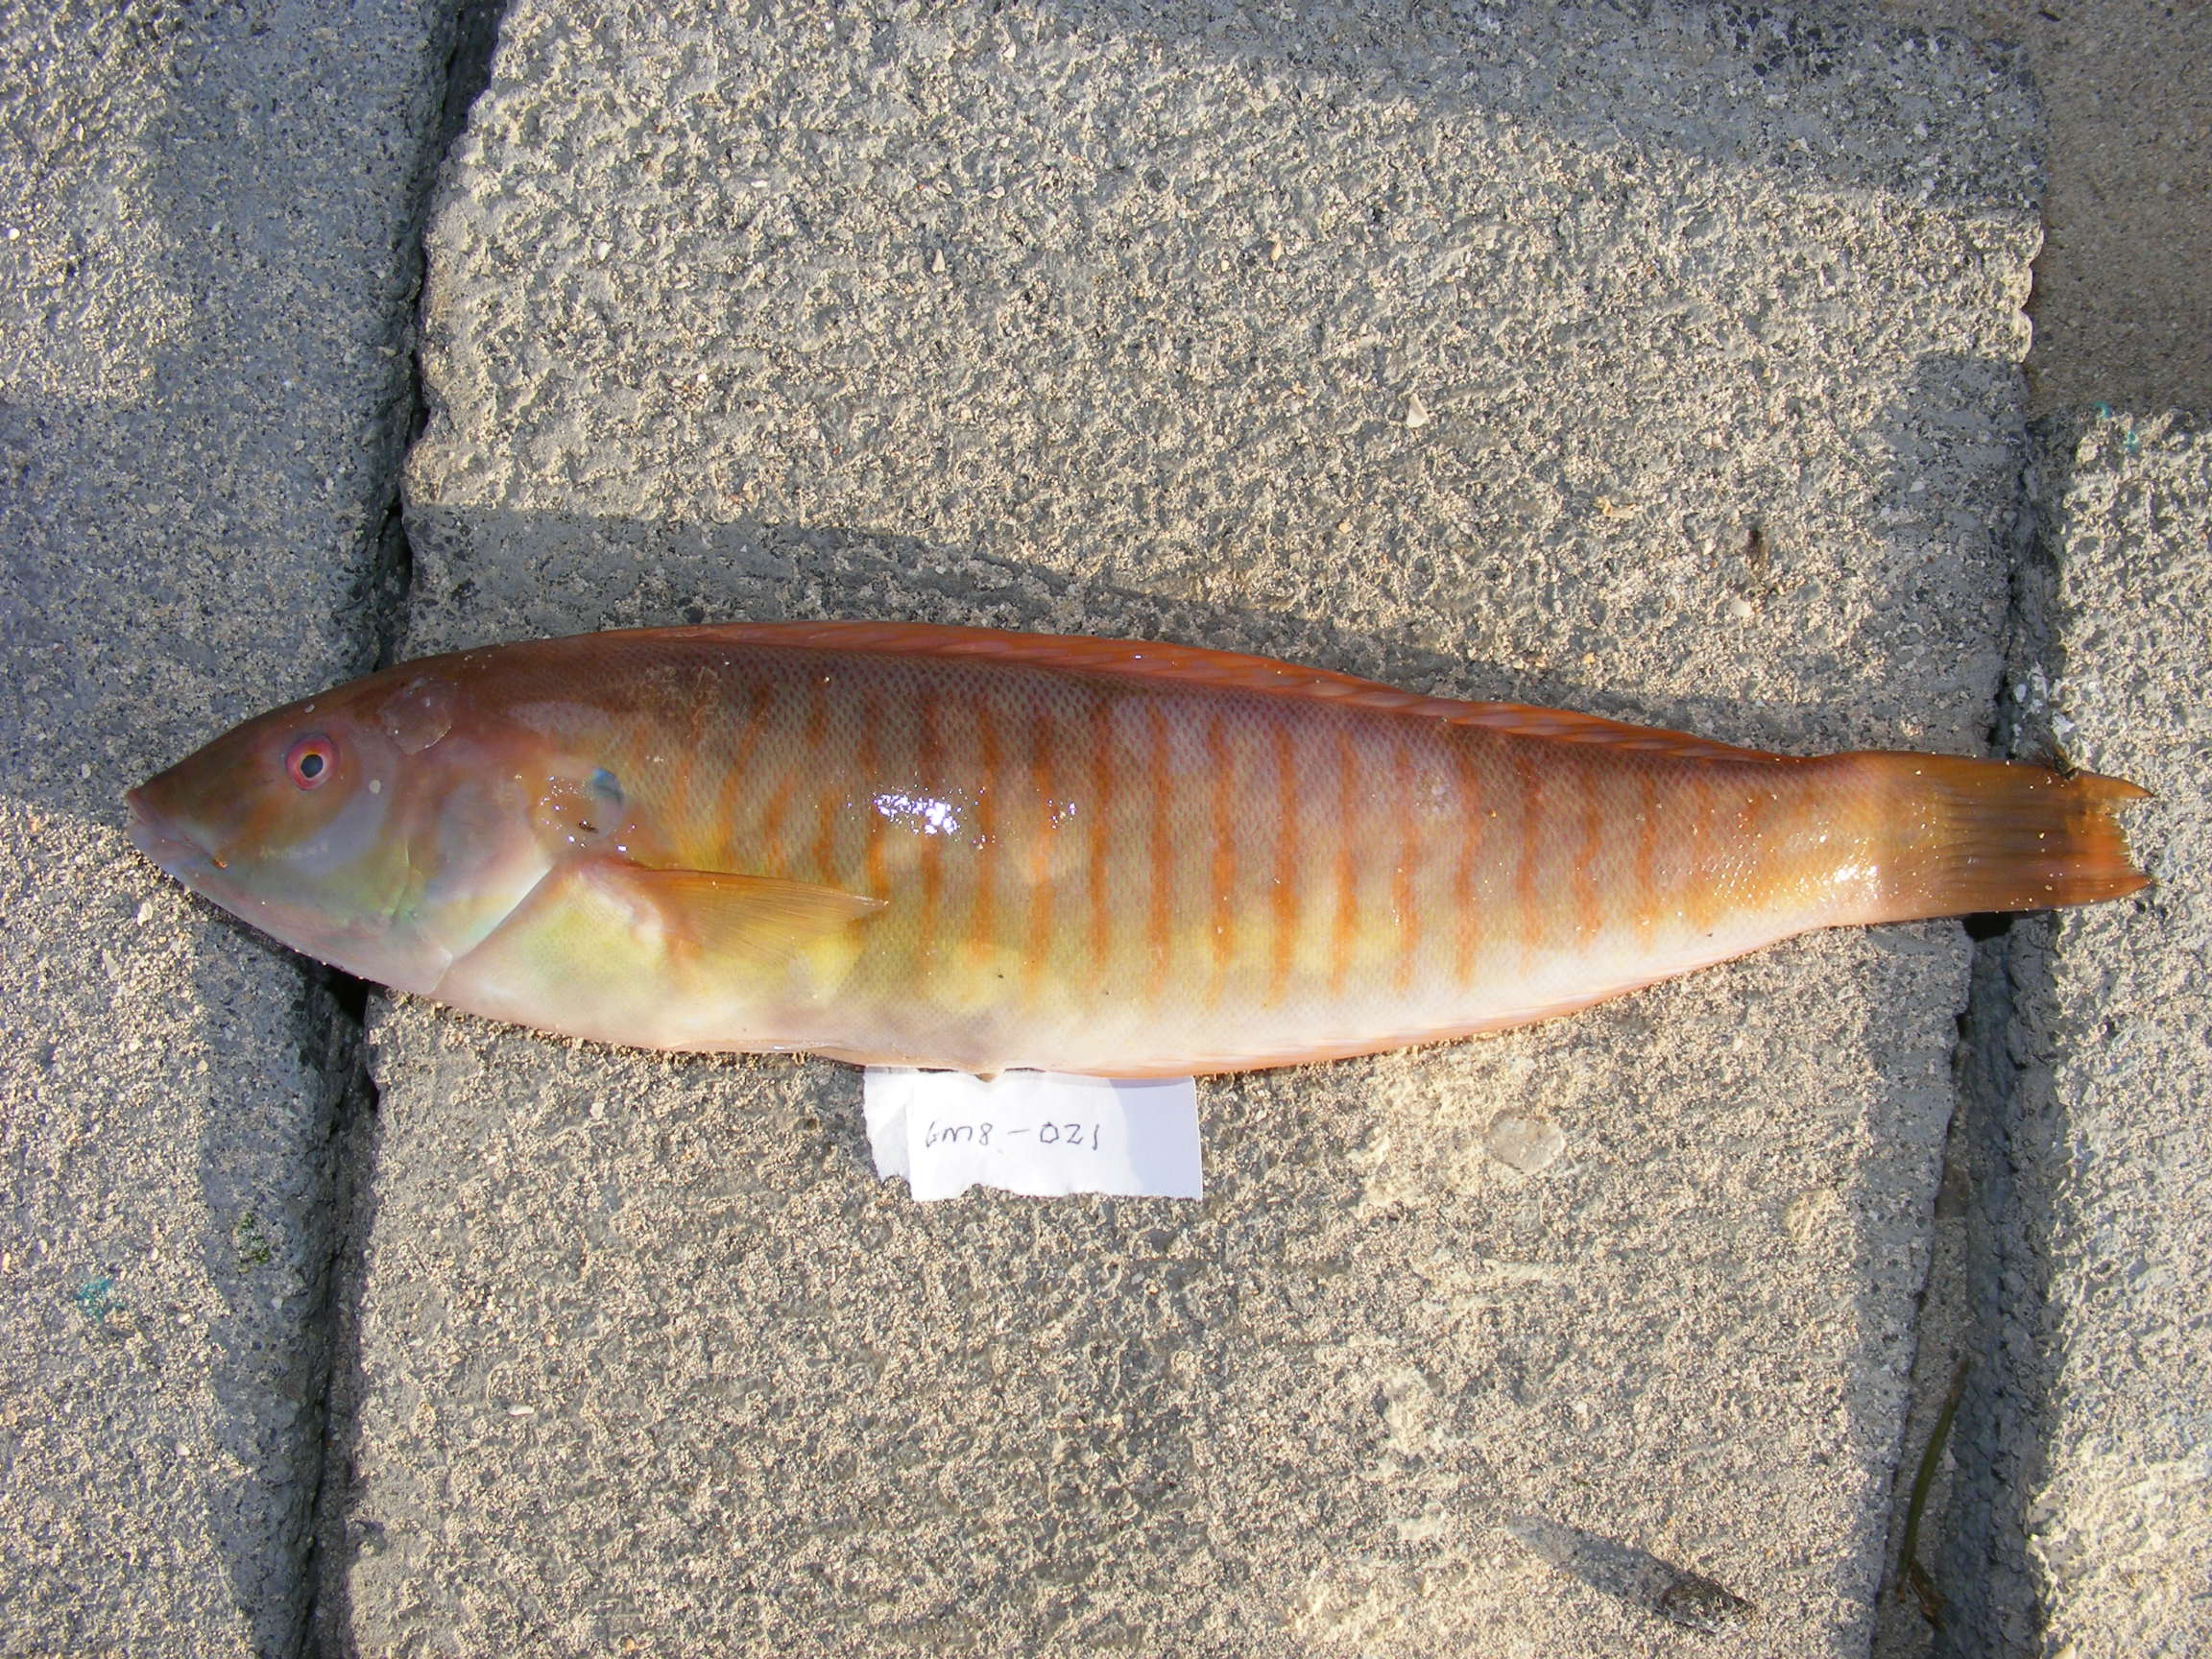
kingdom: Animalia
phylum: Chordata
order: Perciformes
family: Labridae
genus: Hologymnosus
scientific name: Hologymnosus doliatus
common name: Pastel ringwrasse
